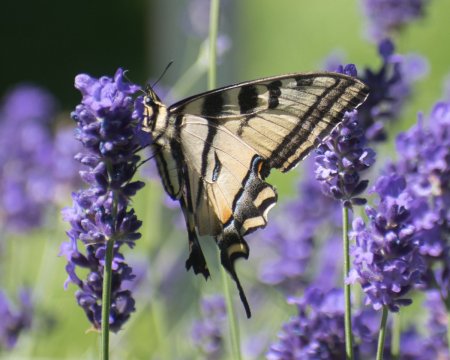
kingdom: Animalia
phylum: Arthropoda
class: Insecta
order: Lepidoptera
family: Papilionidae
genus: Pterourus
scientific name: Pterourus canadensis
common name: Canadian Tiger Swallowtail
